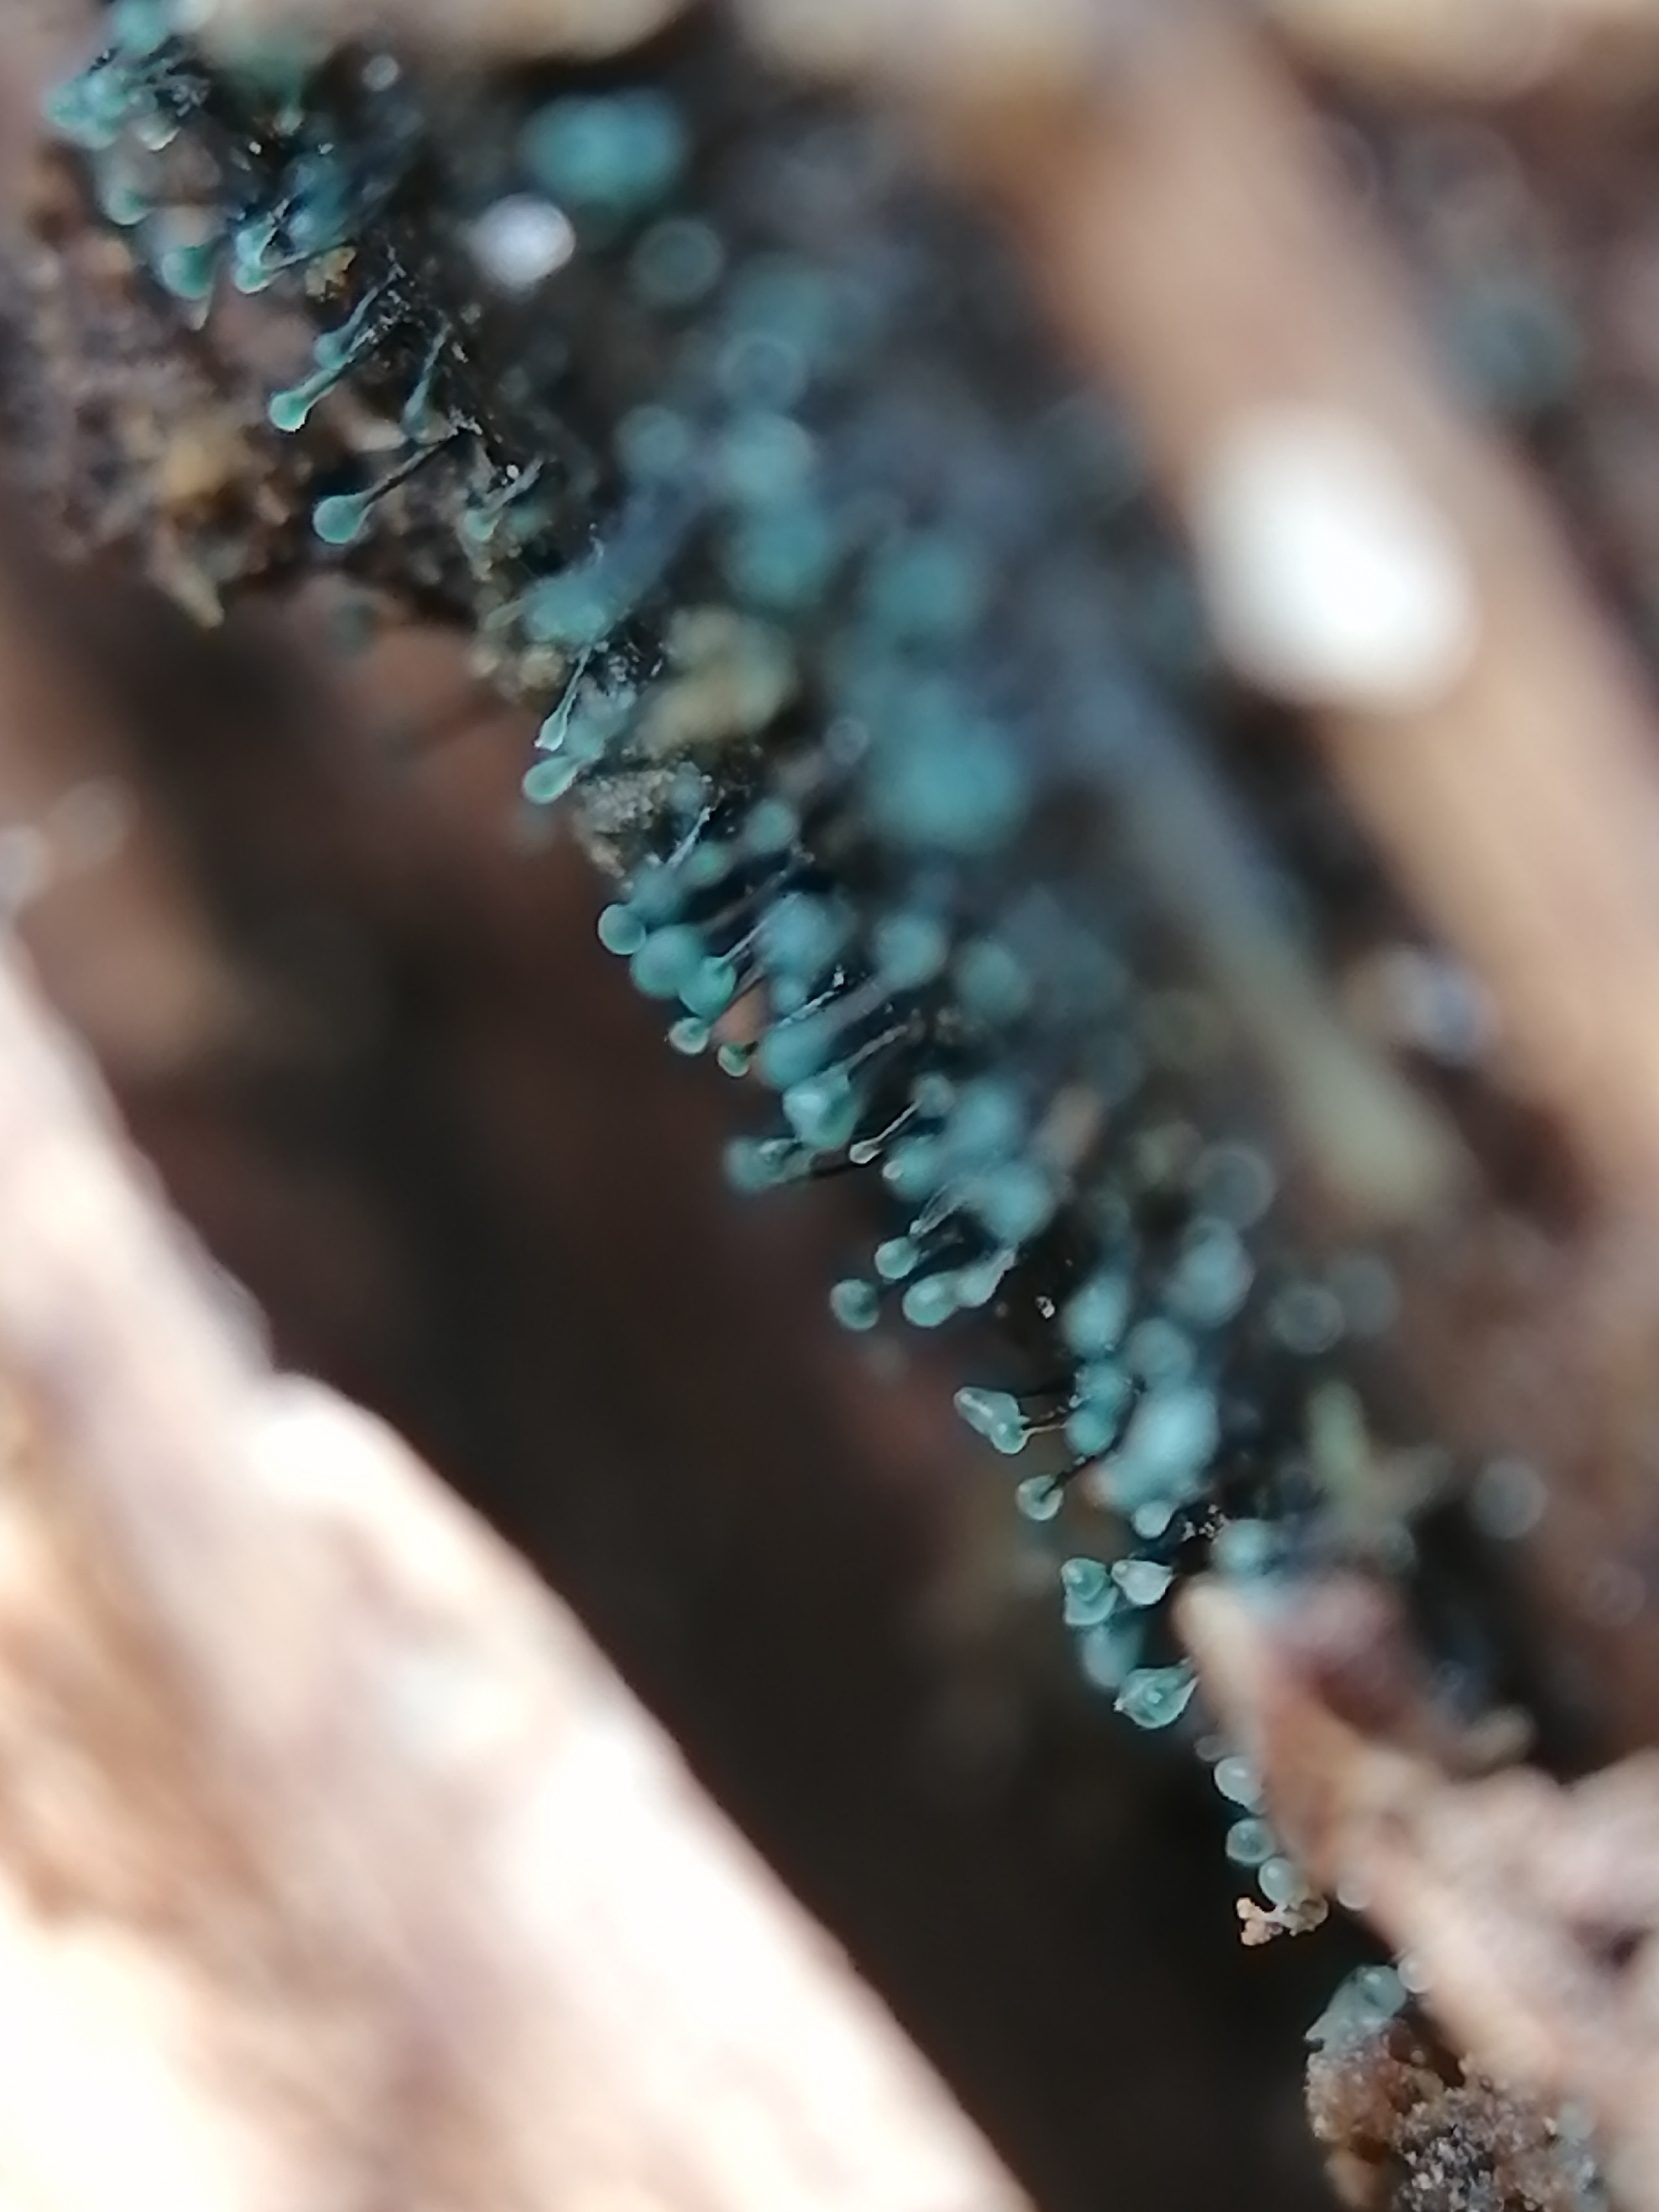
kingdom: Fungi
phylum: Ascomycota
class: Leotiomycetes
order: Leotiales
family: Tympanidaceae
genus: Dendrostilbella
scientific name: Dendrostilbella smaragdina
